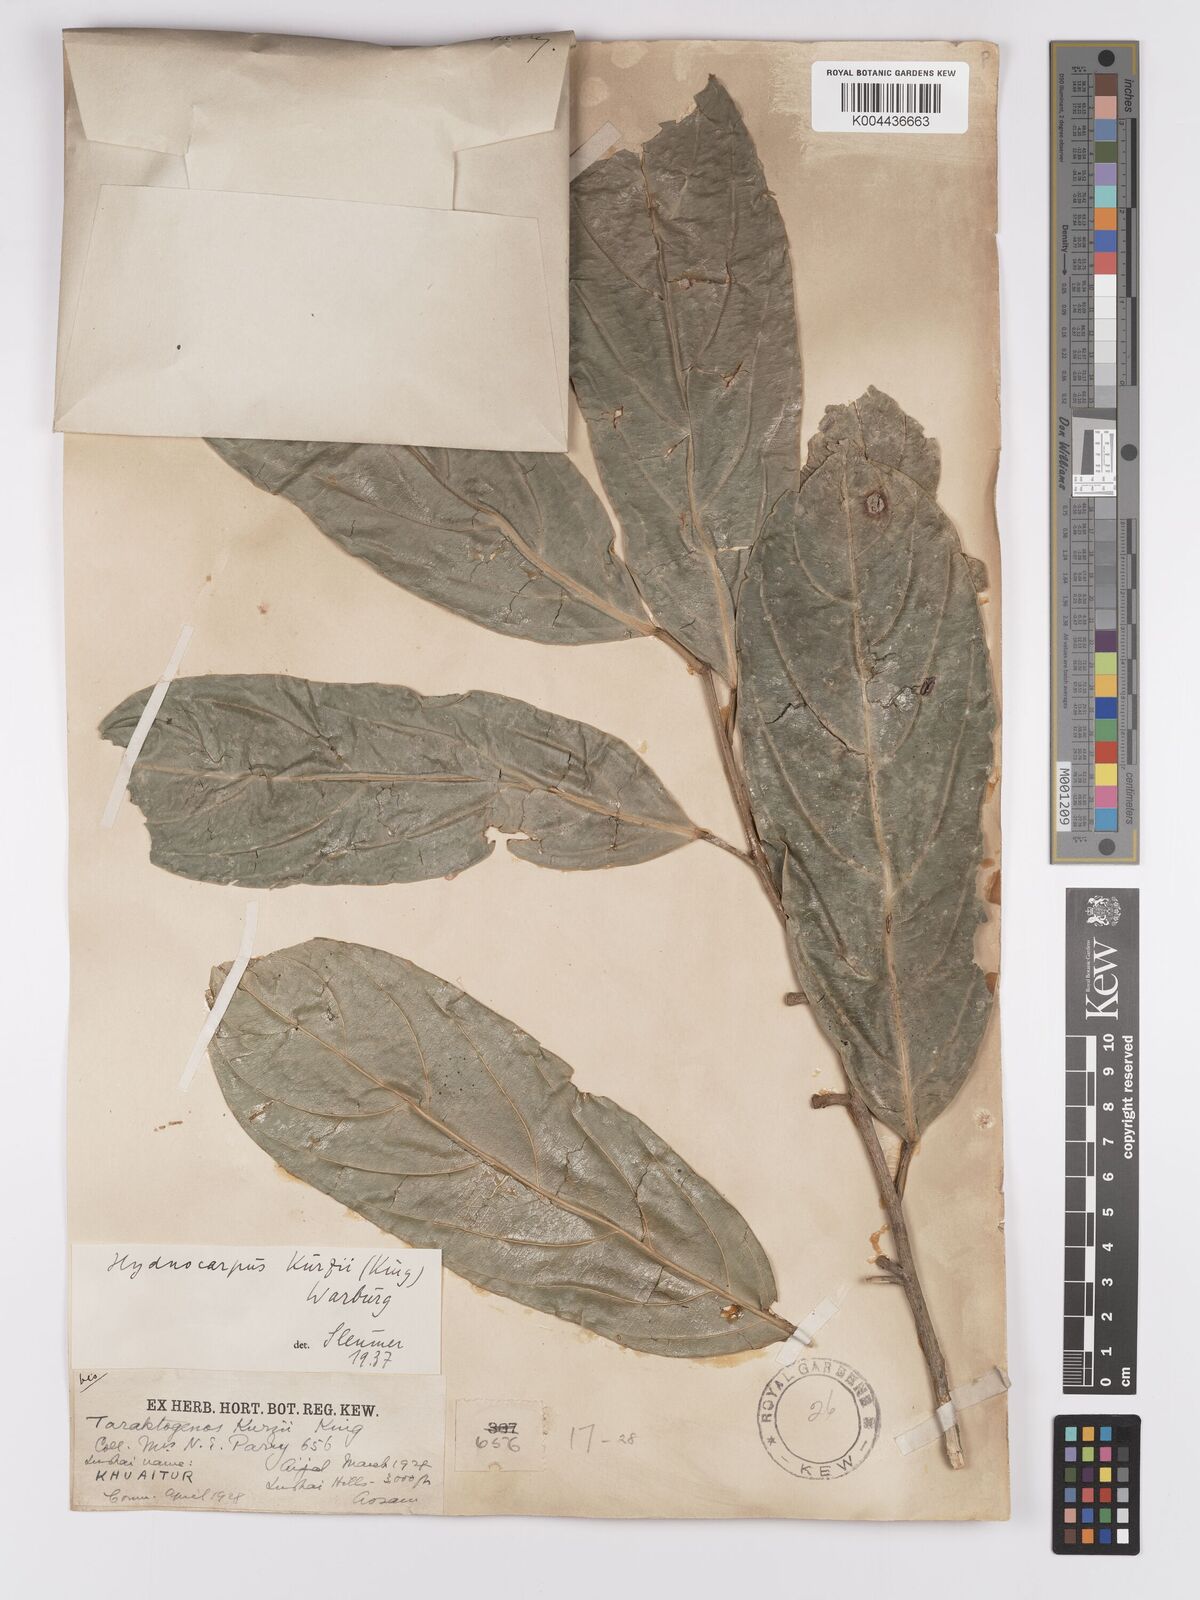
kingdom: Plantae
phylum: Tracheophyta
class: Magnoliopsida
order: Malpighiales
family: Achariaceae
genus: Hydnocarpus
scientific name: Hydnocarpus kurzii
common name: Chaulmoogra
